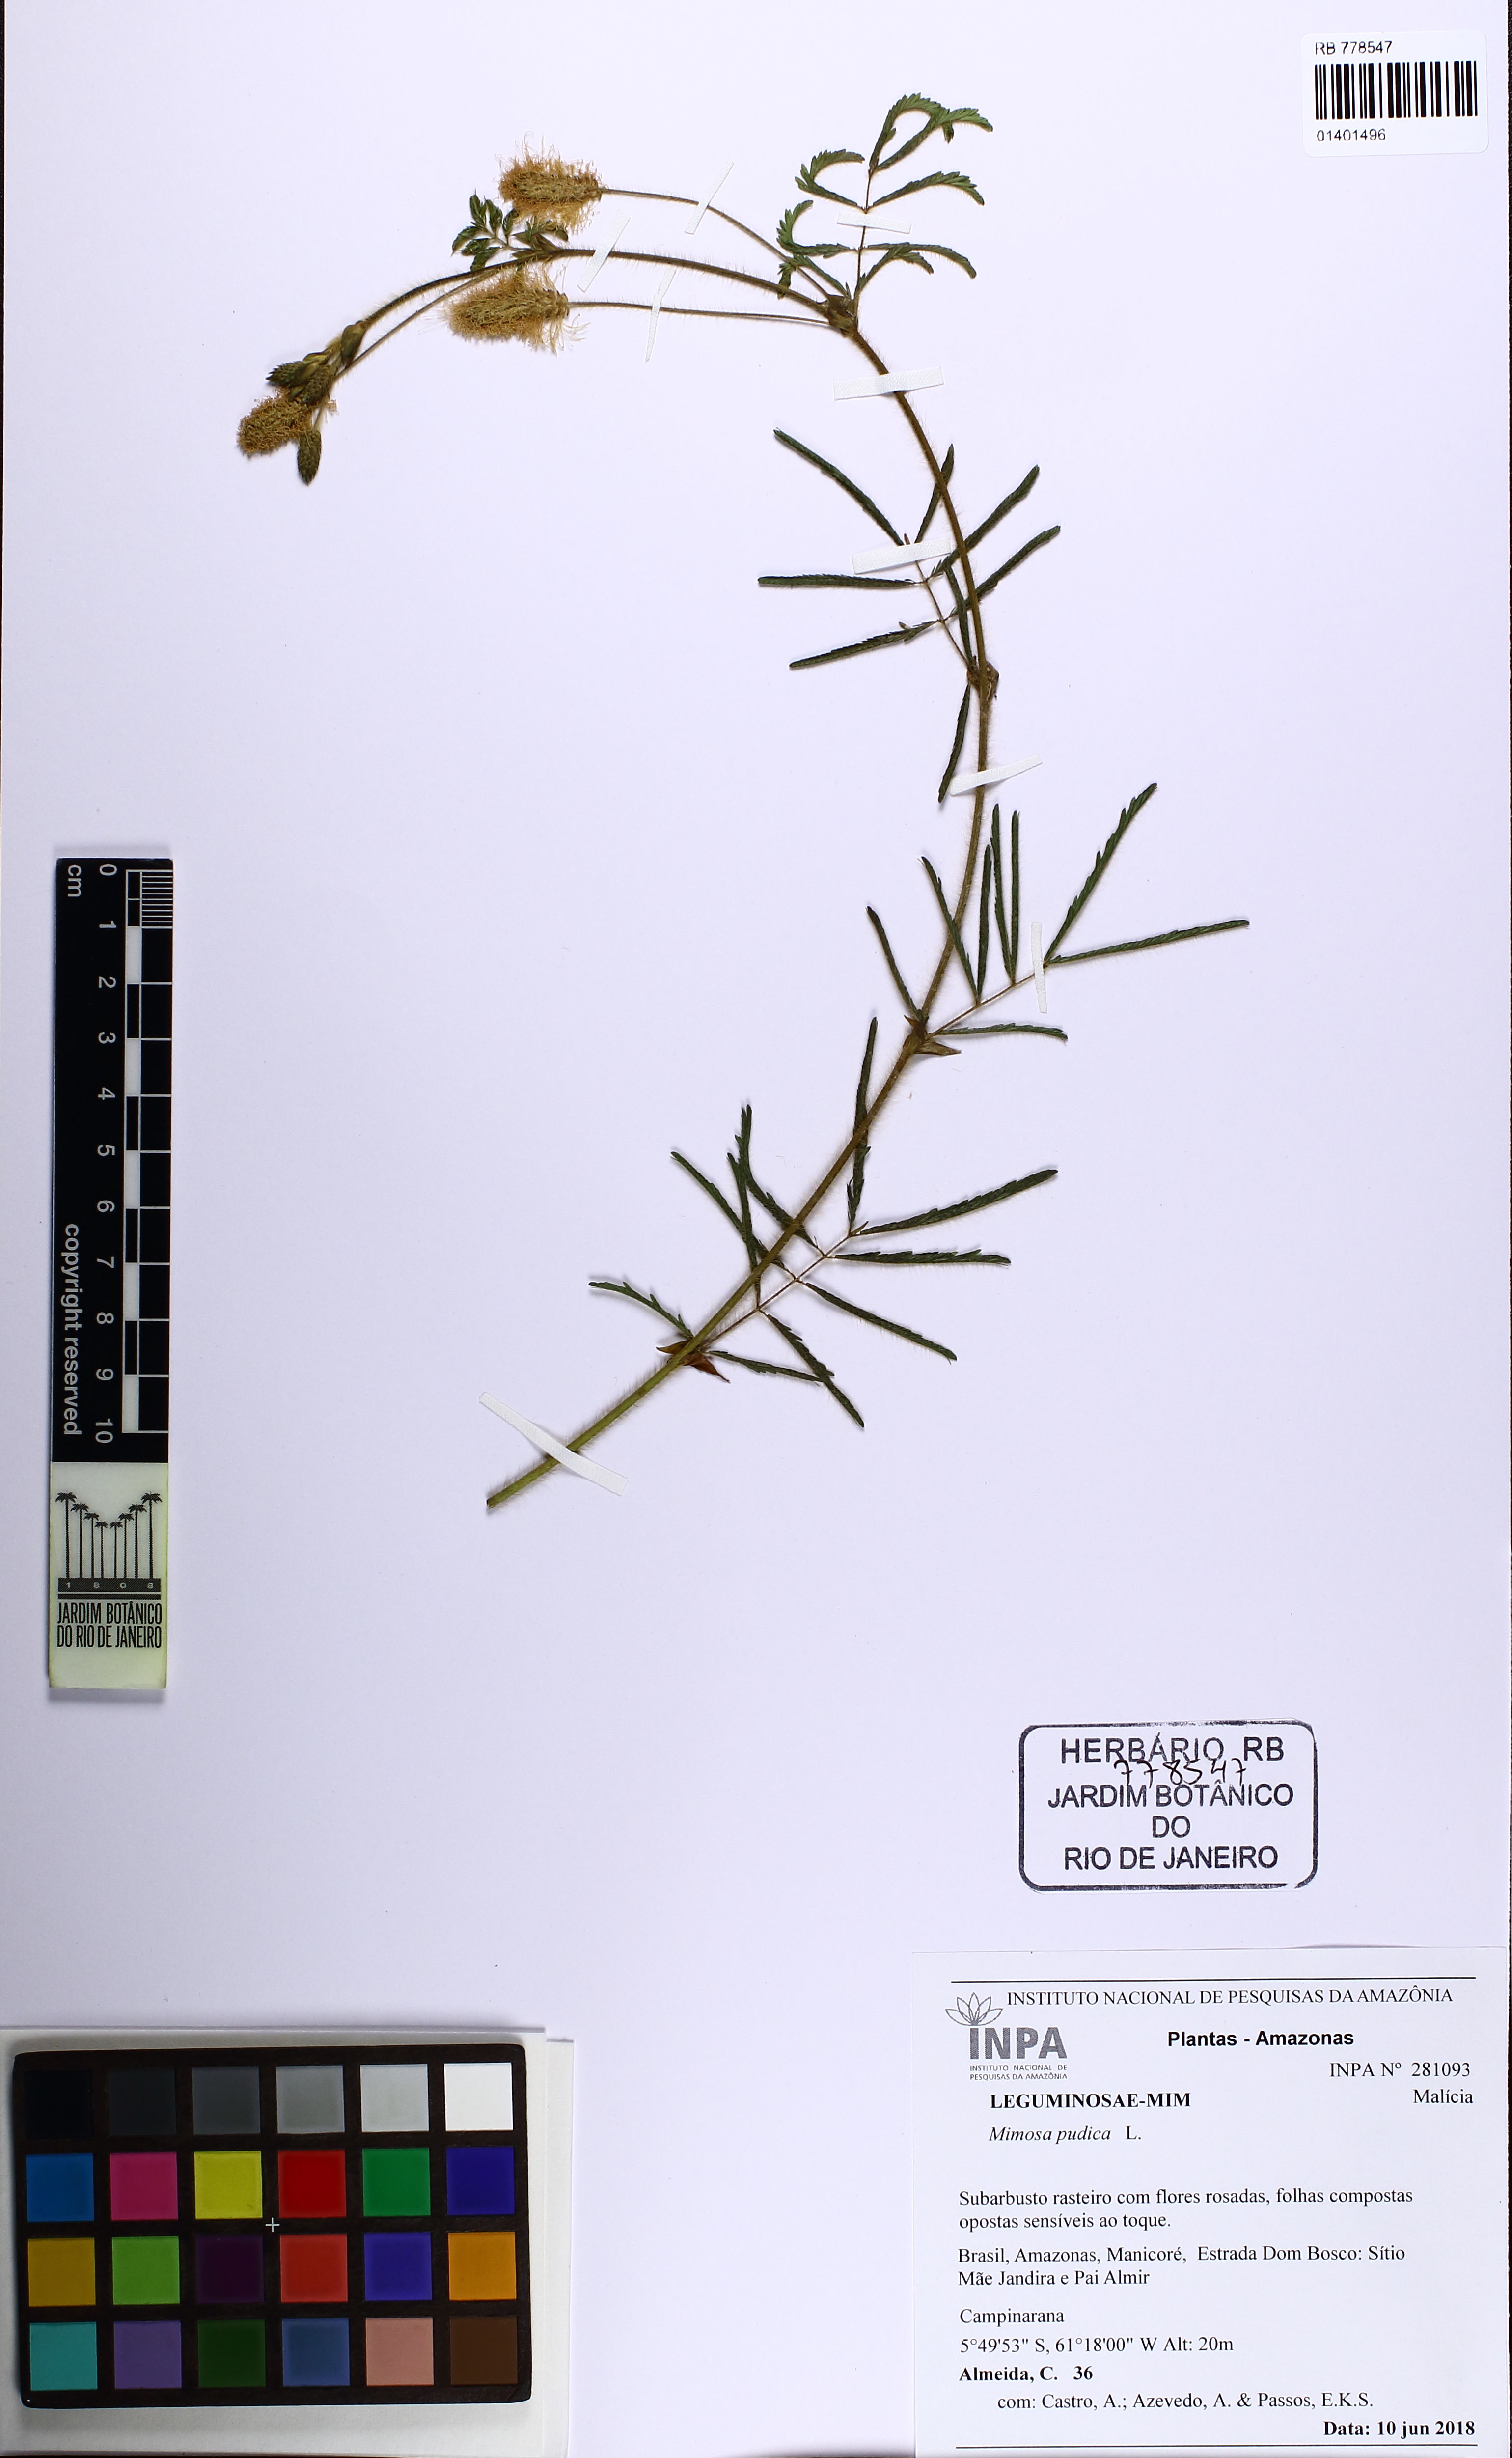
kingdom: Plantae
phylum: Tracheophyta
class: Magnoliopsida
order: Fabales
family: Fabaceae
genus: Mimosa
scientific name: Mimosa pudica
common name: Sensitive plant
